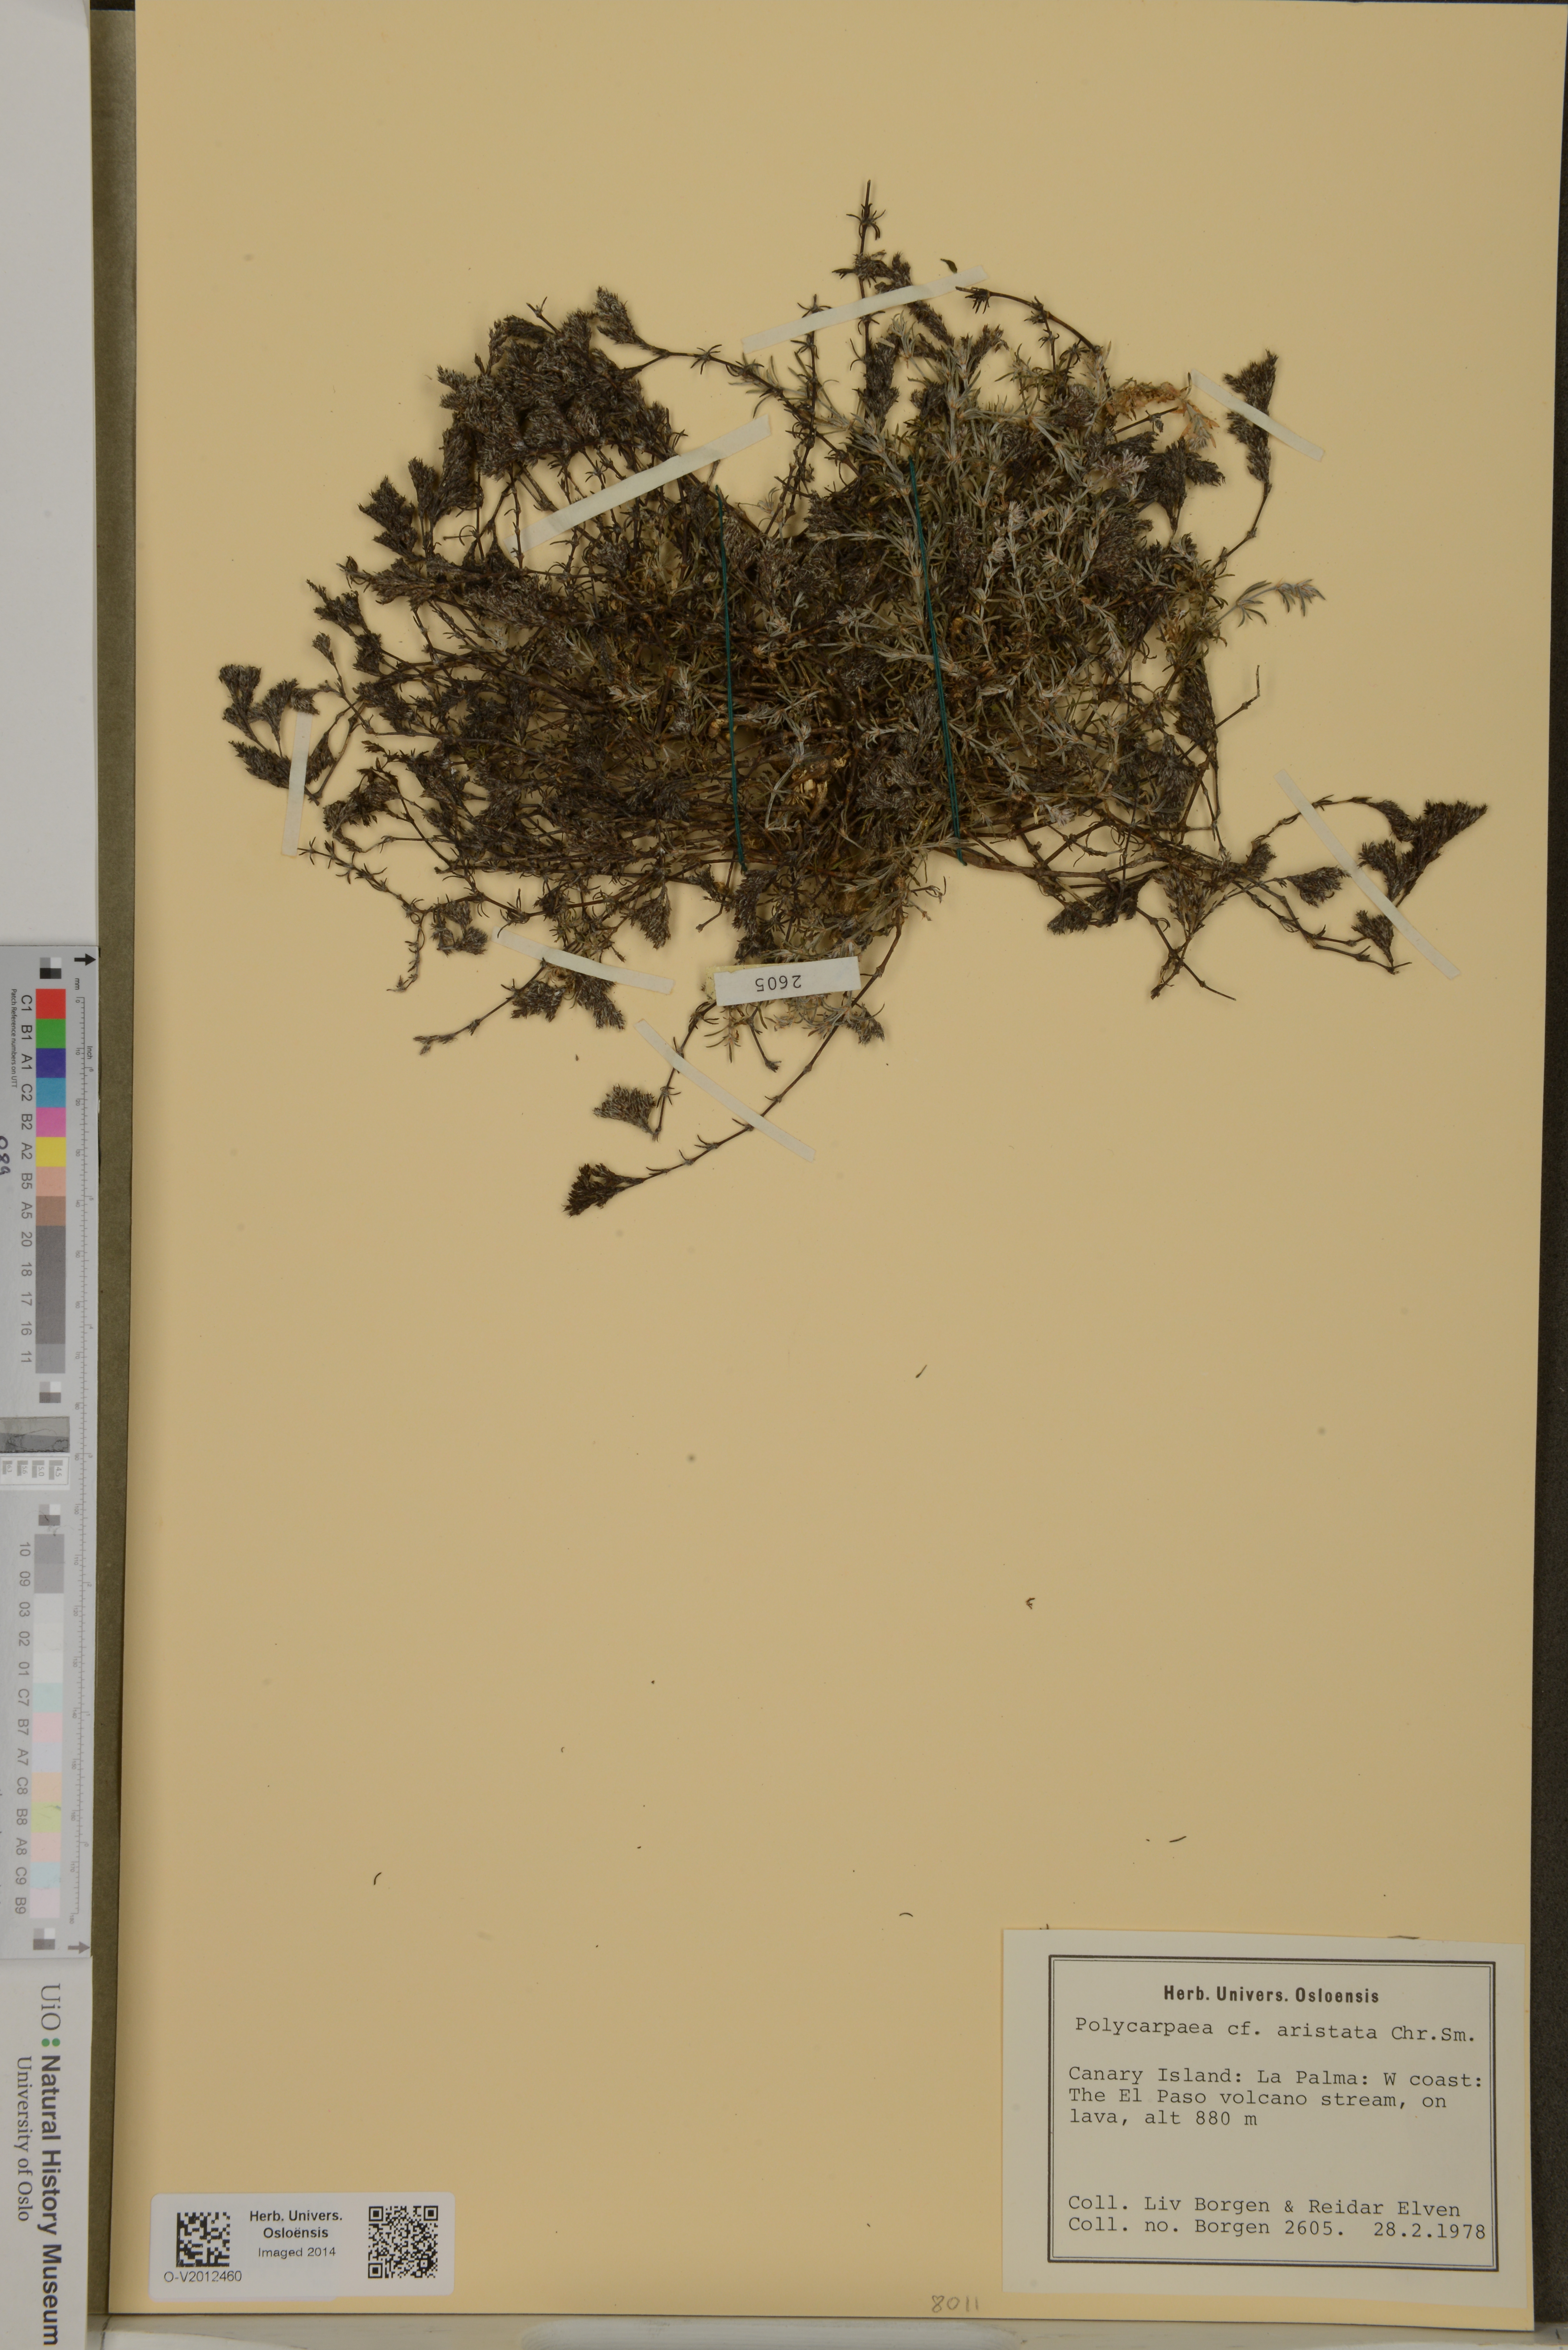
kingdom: Plantae
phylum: Tracheophyta
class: Magnoliopsida
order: Caryophyllales
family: Caryophyllaceae
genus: Polycarpaea
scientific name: Polycarpaea aristata
